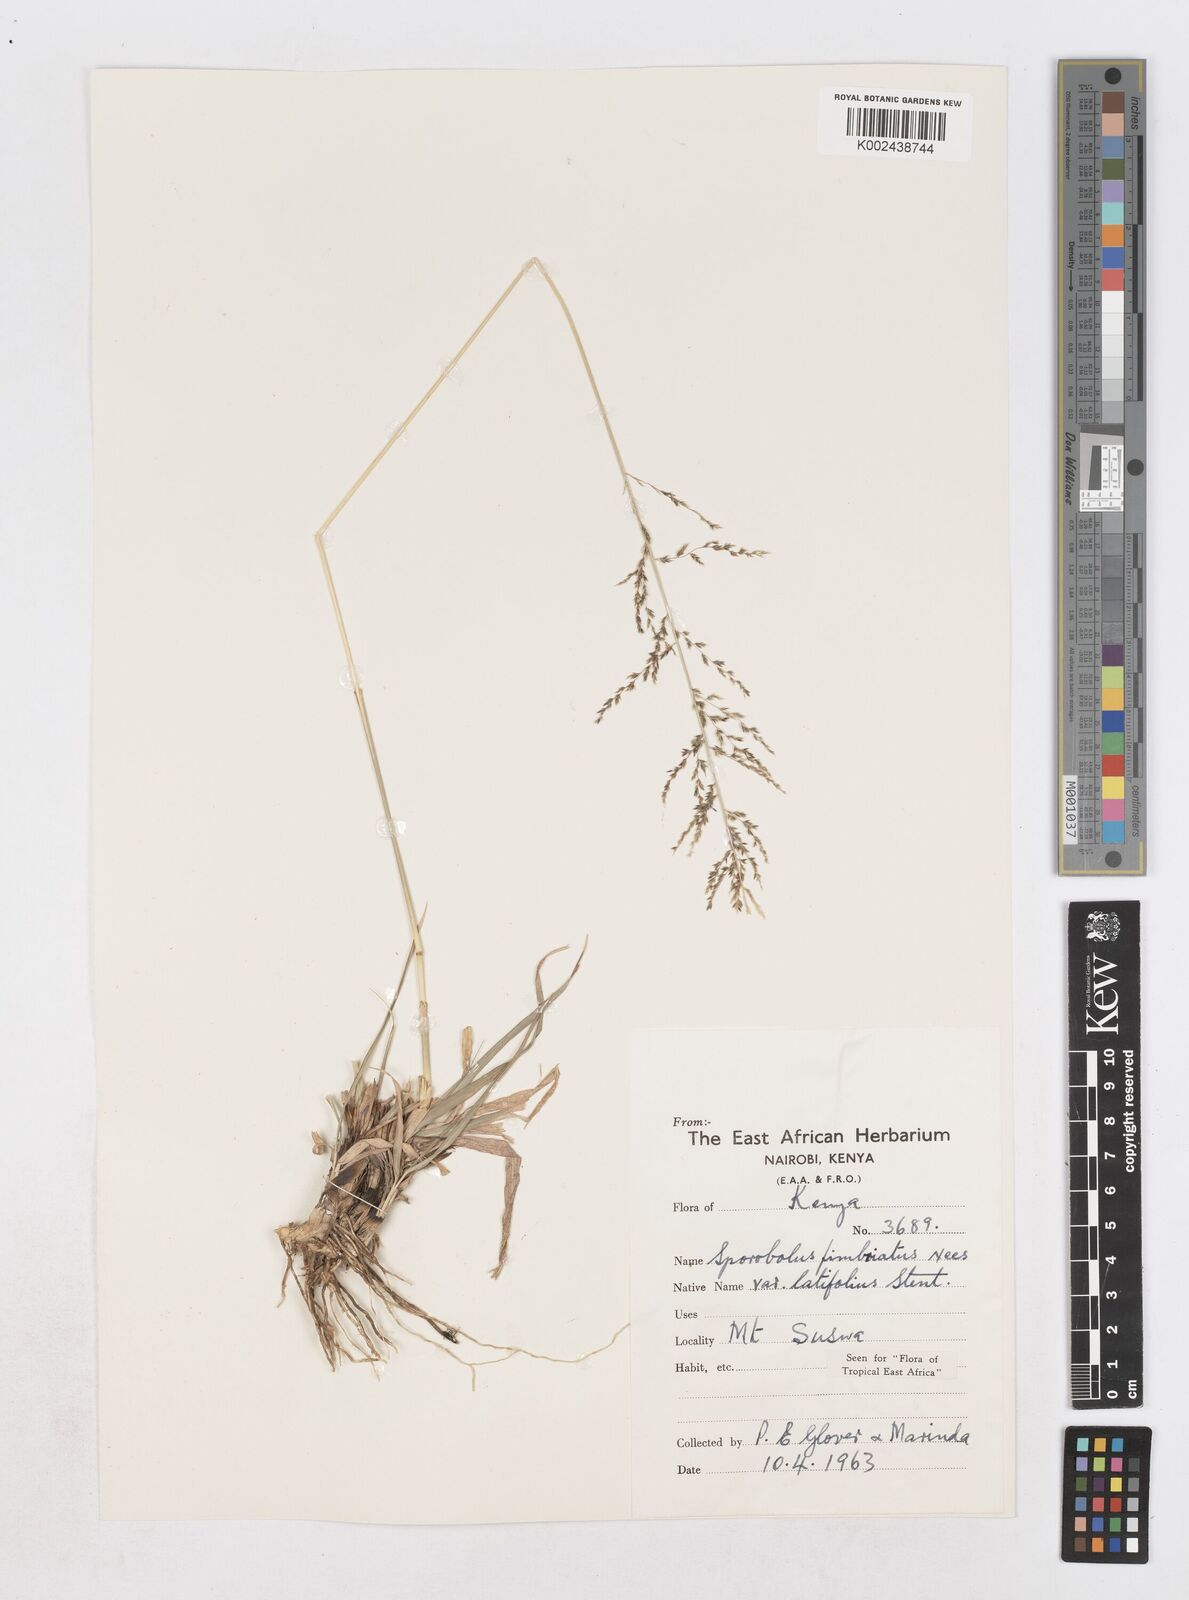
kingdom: Plantae
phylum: Tracheophyta
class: Liliopsida
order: Poales
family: Poaceae
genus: Sporobolus
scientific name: Sporobolus fimbriatus
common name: Fringed dropseed
